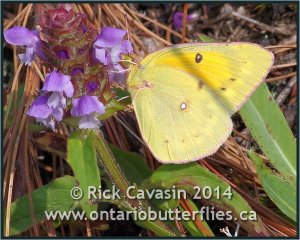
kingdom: Animalia
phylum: Arthropoda
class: Insecta
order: Lepidoptera
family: Pieridae
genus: Colias
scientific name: Colias eurytheme
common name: Orange Sulphur
